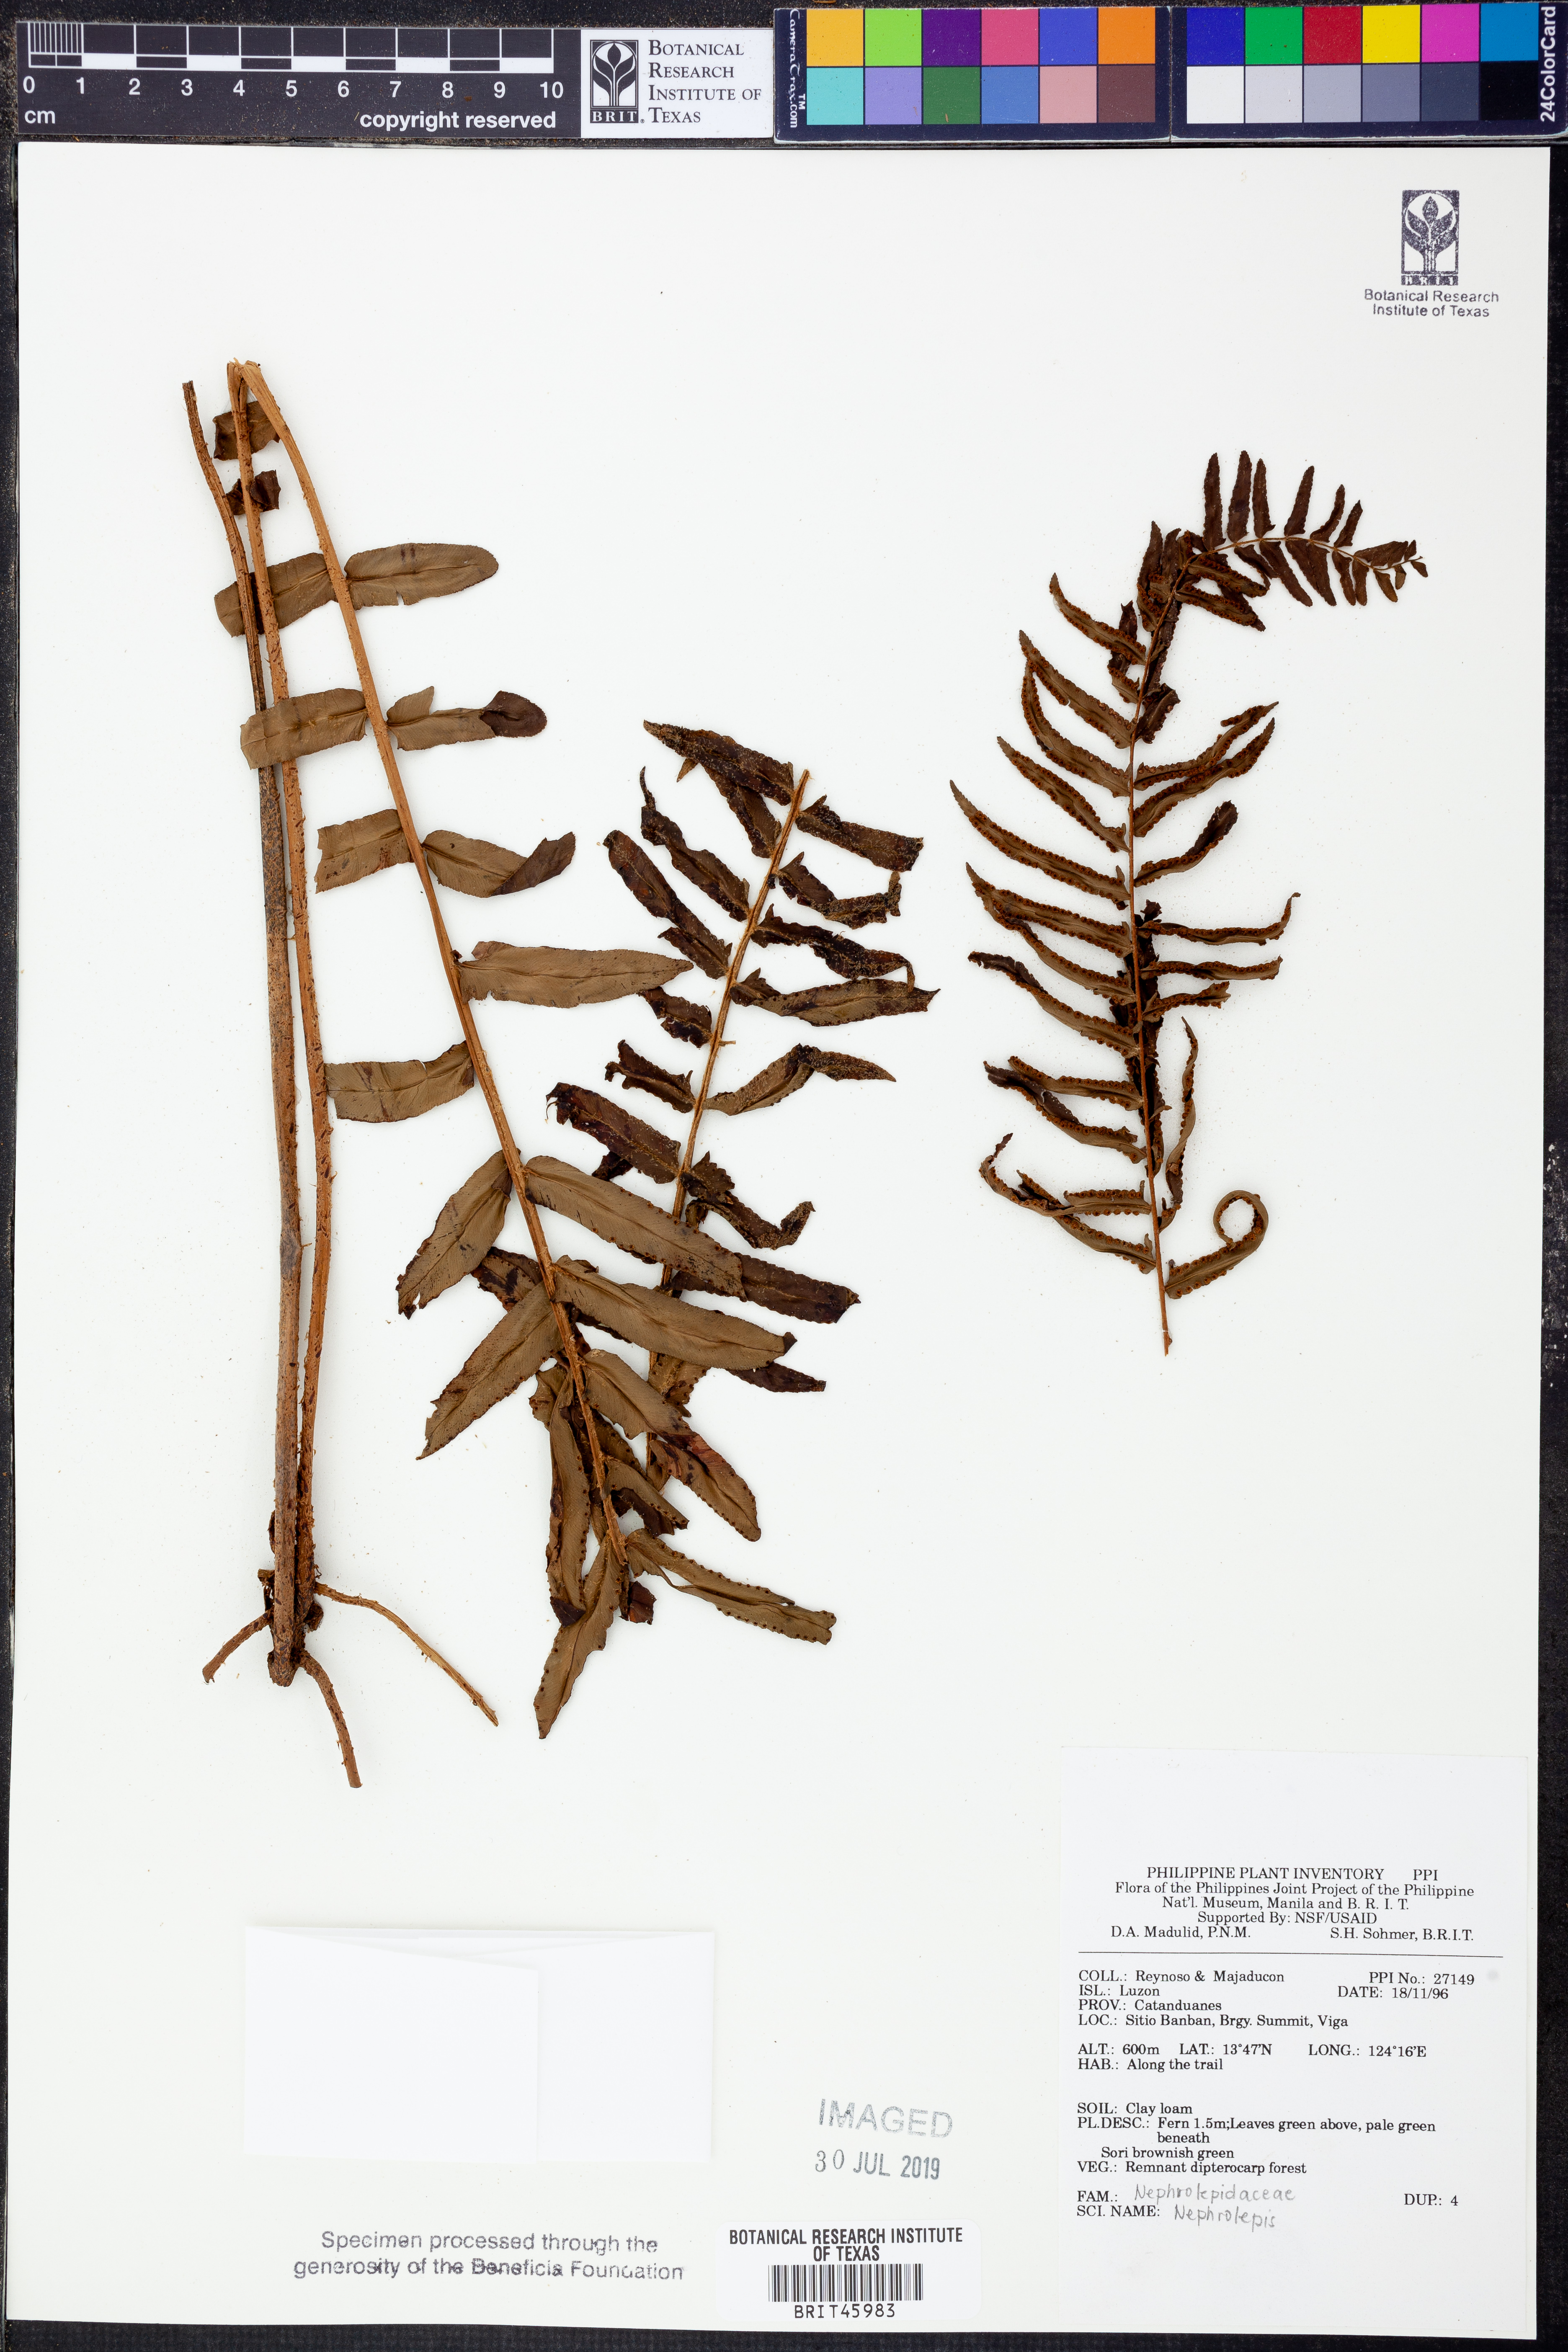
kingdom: Plantae
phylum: Tracheophyta
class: Polypodiopsida
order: Polypodiales
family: Nephrolepidaceae
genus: Nephrolepis
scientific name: Nephrolepis
